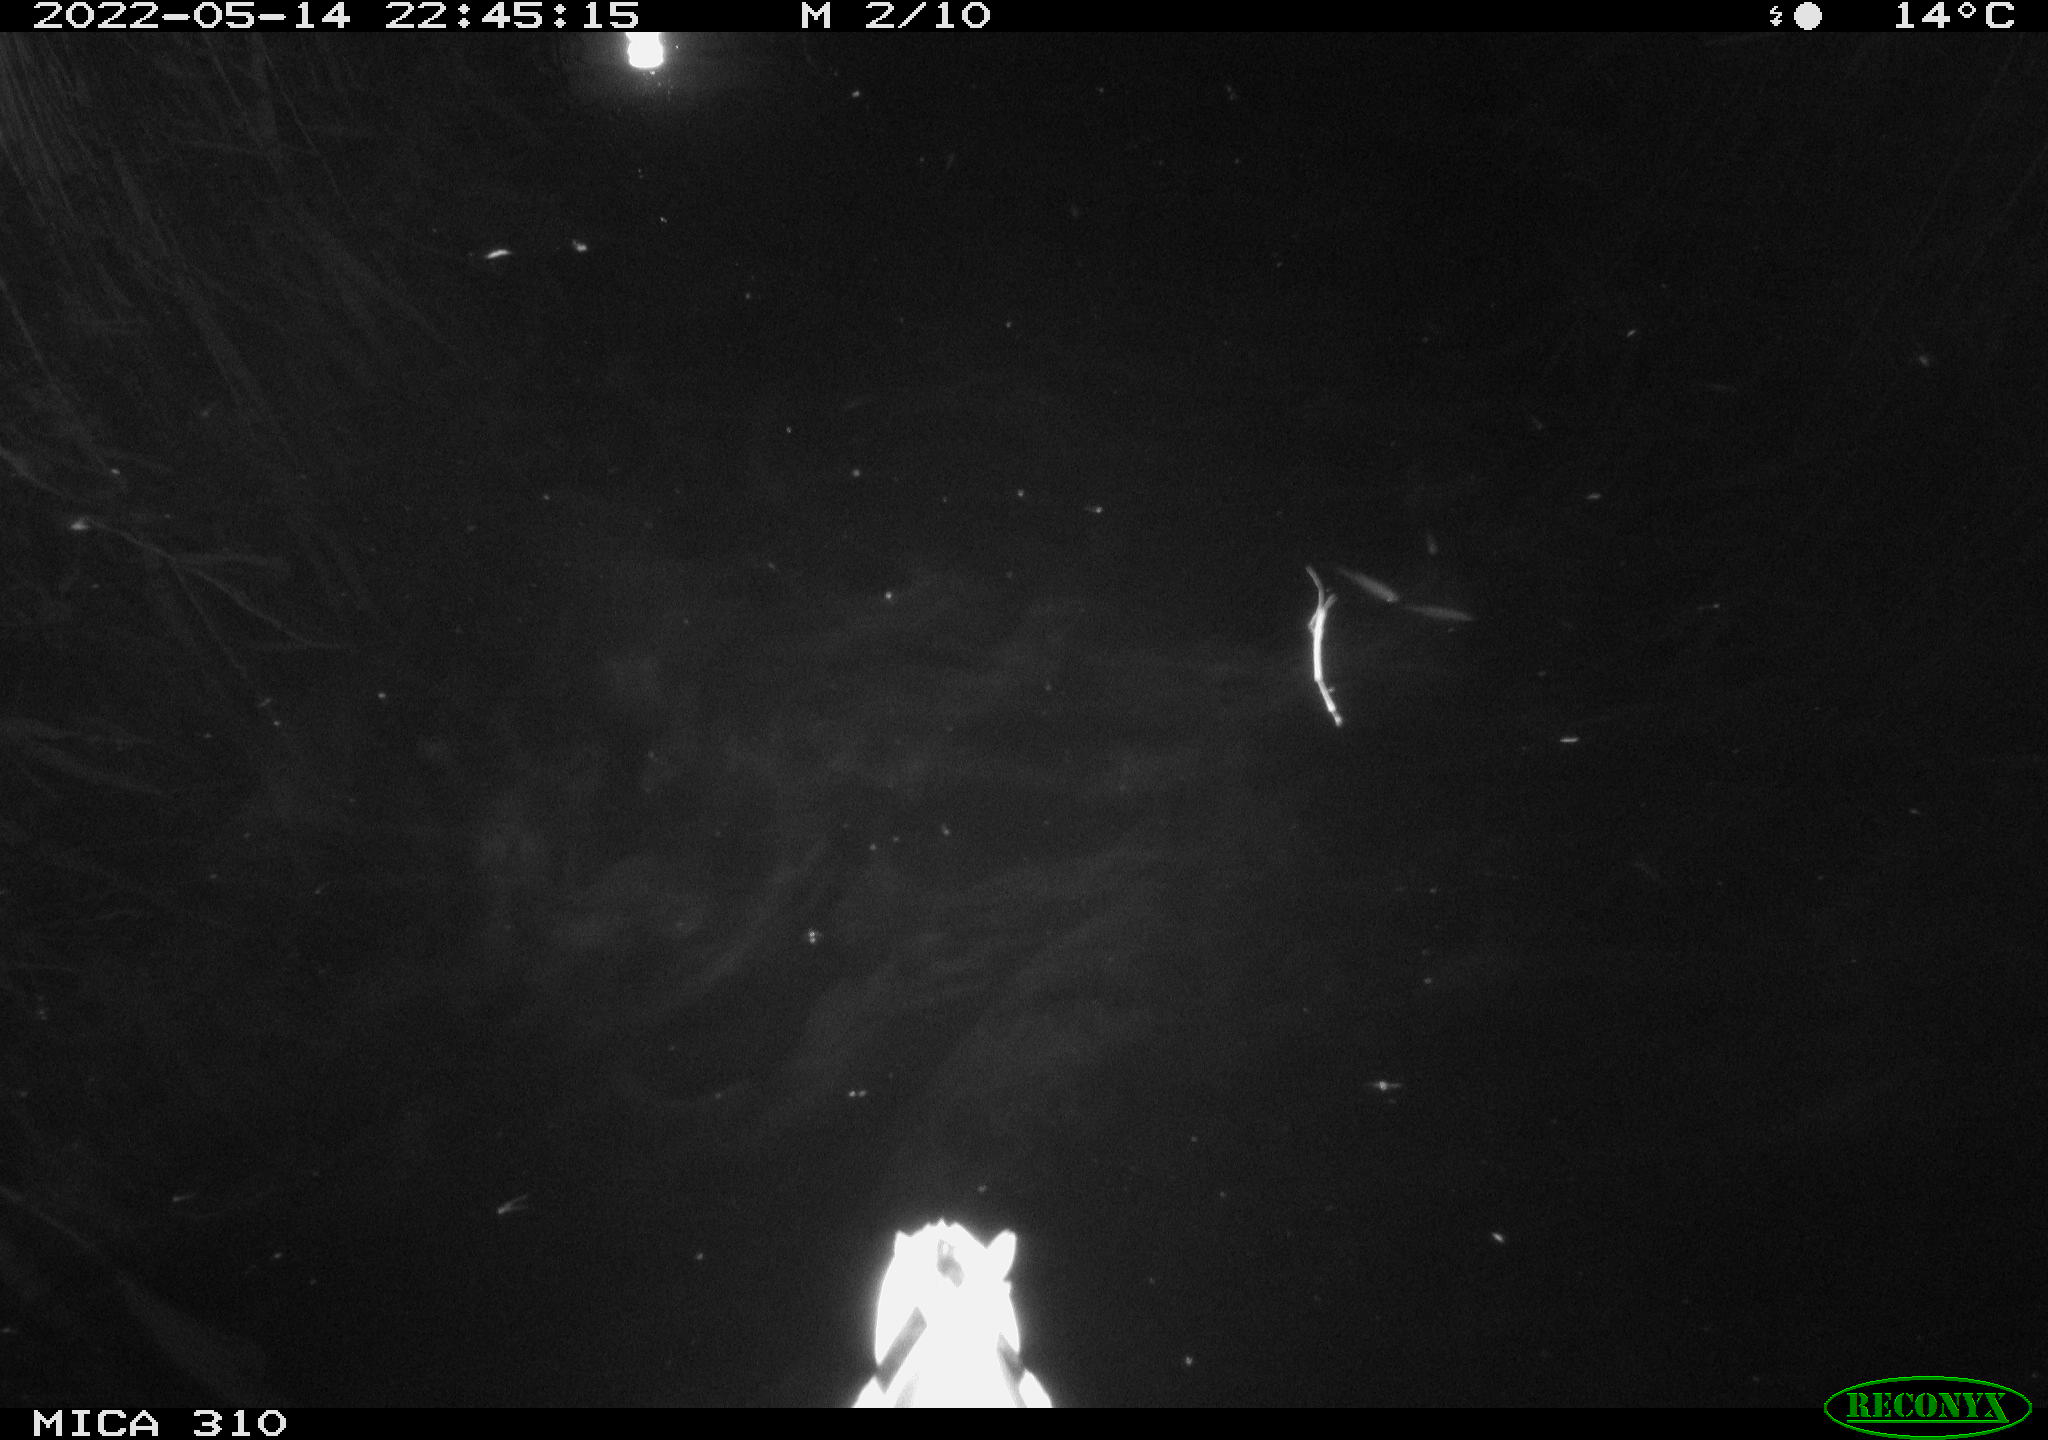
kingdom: Animalia
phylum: Chordata
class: Aves
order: Anseriformes
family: Anatidae
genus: Anas
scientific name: Anas platyrhynchos
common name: Mallard
